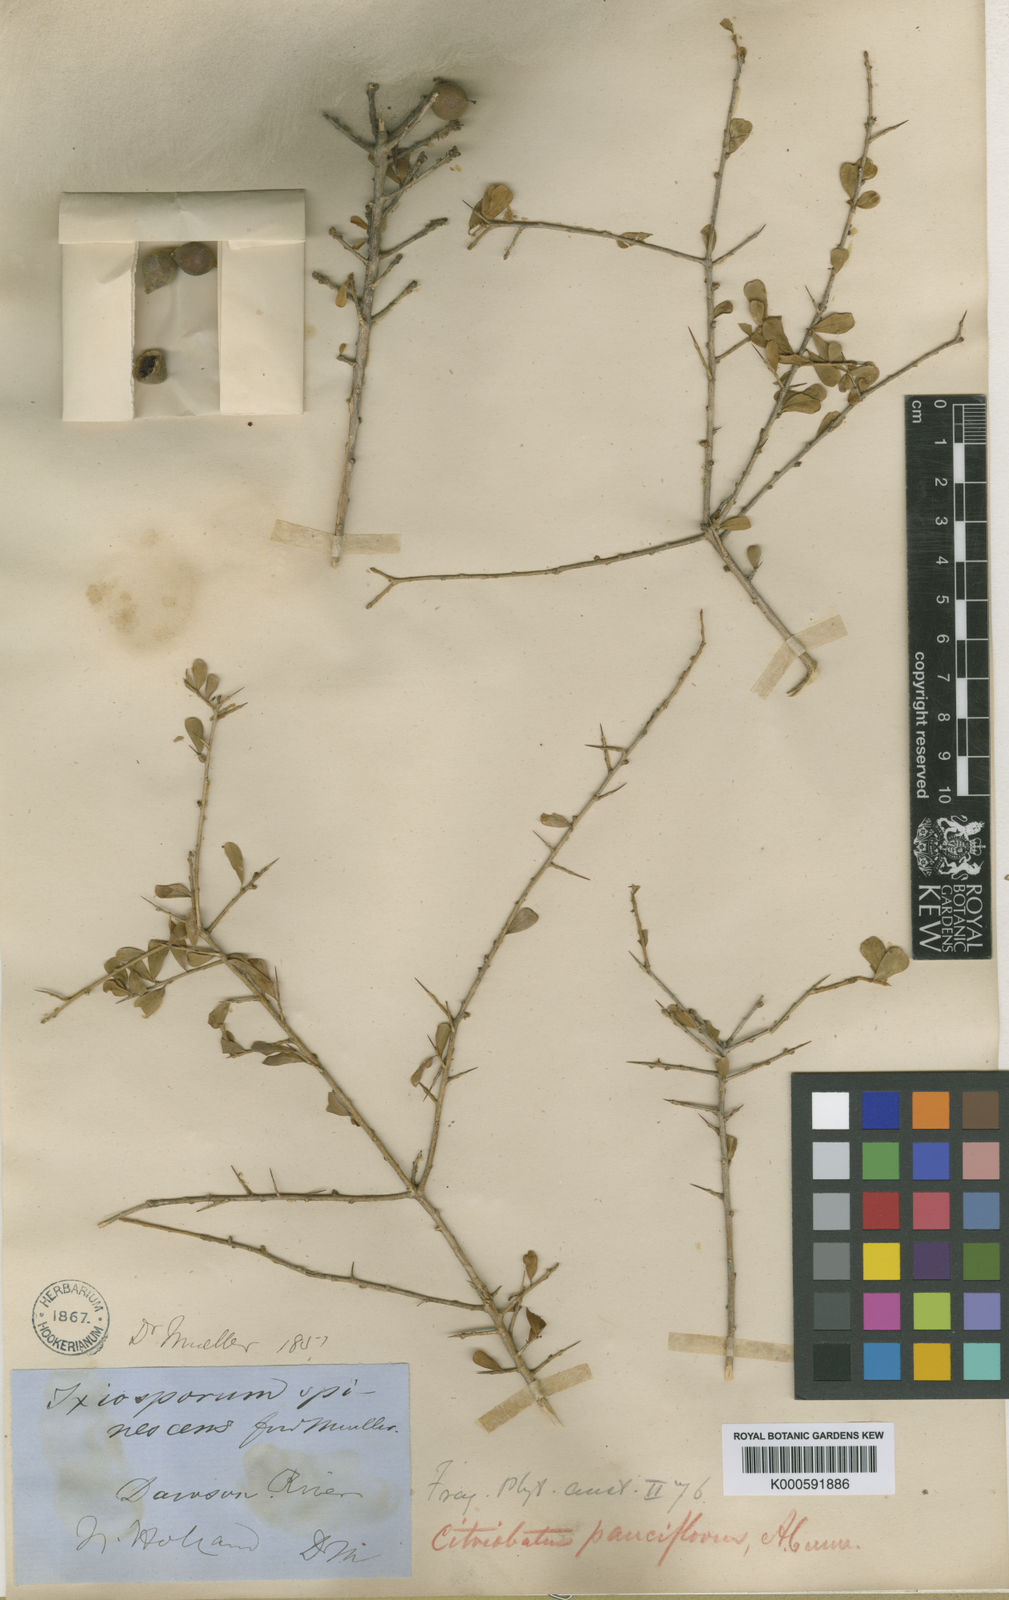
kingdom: Plantae
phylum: Tracheophyta
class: Magnoliopsida
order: Apiales
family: Pittosporaceae
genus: Citriobatus
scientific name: Citriobatus
